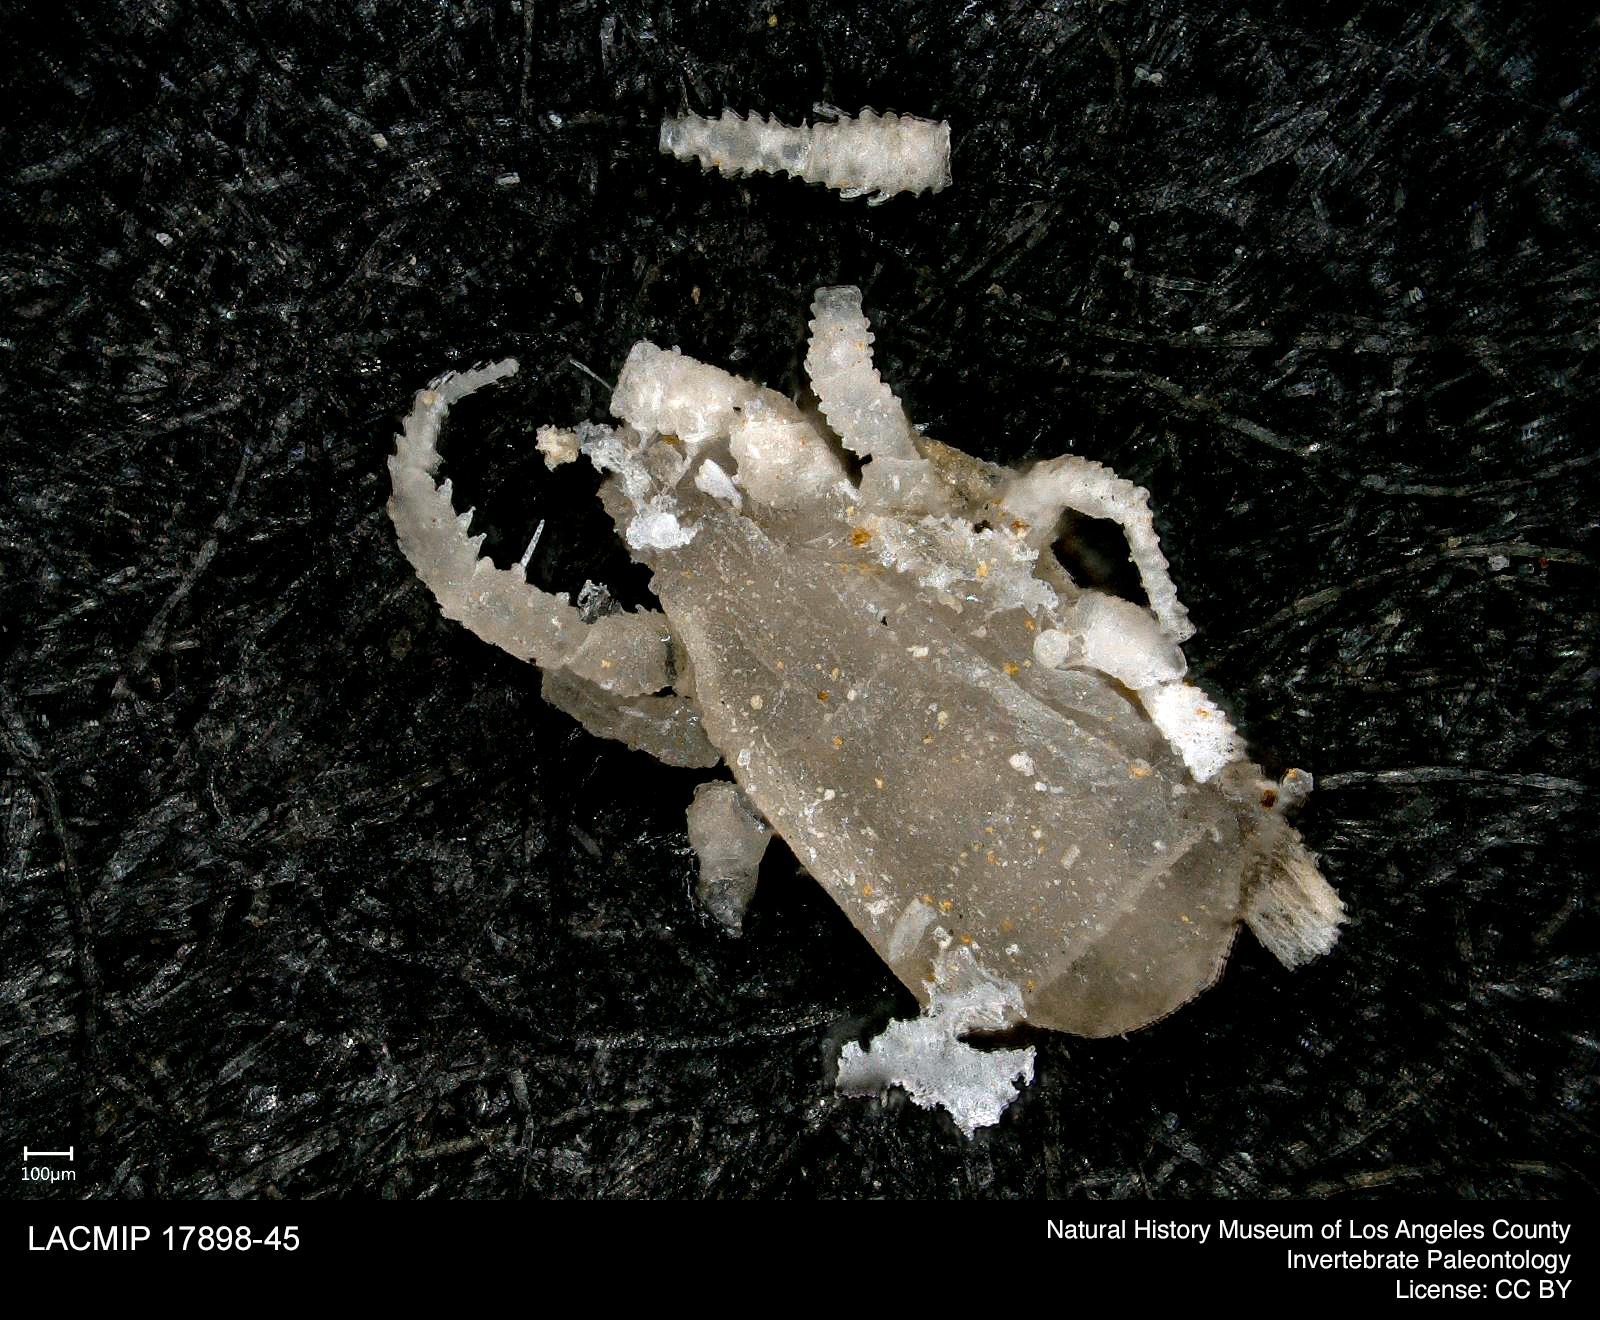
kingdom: Animalia
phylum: Arthropoda
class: Arachnida
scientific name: Arachnida
